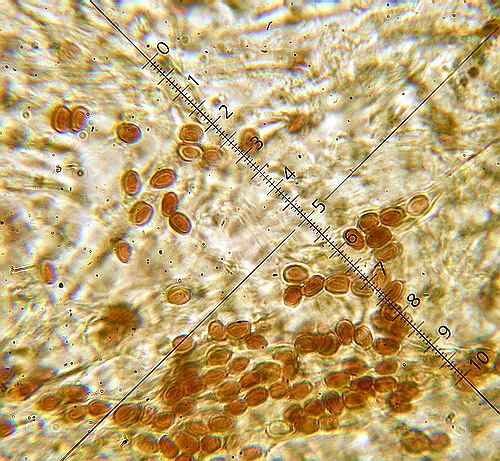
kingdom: Fungi
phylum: Basidiomycota
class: Agaricomycetes
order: Boletales
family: Tapinellaceae
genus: Tapinella
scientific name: Tapinella panuoides
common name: tømmer-viftesvamp
